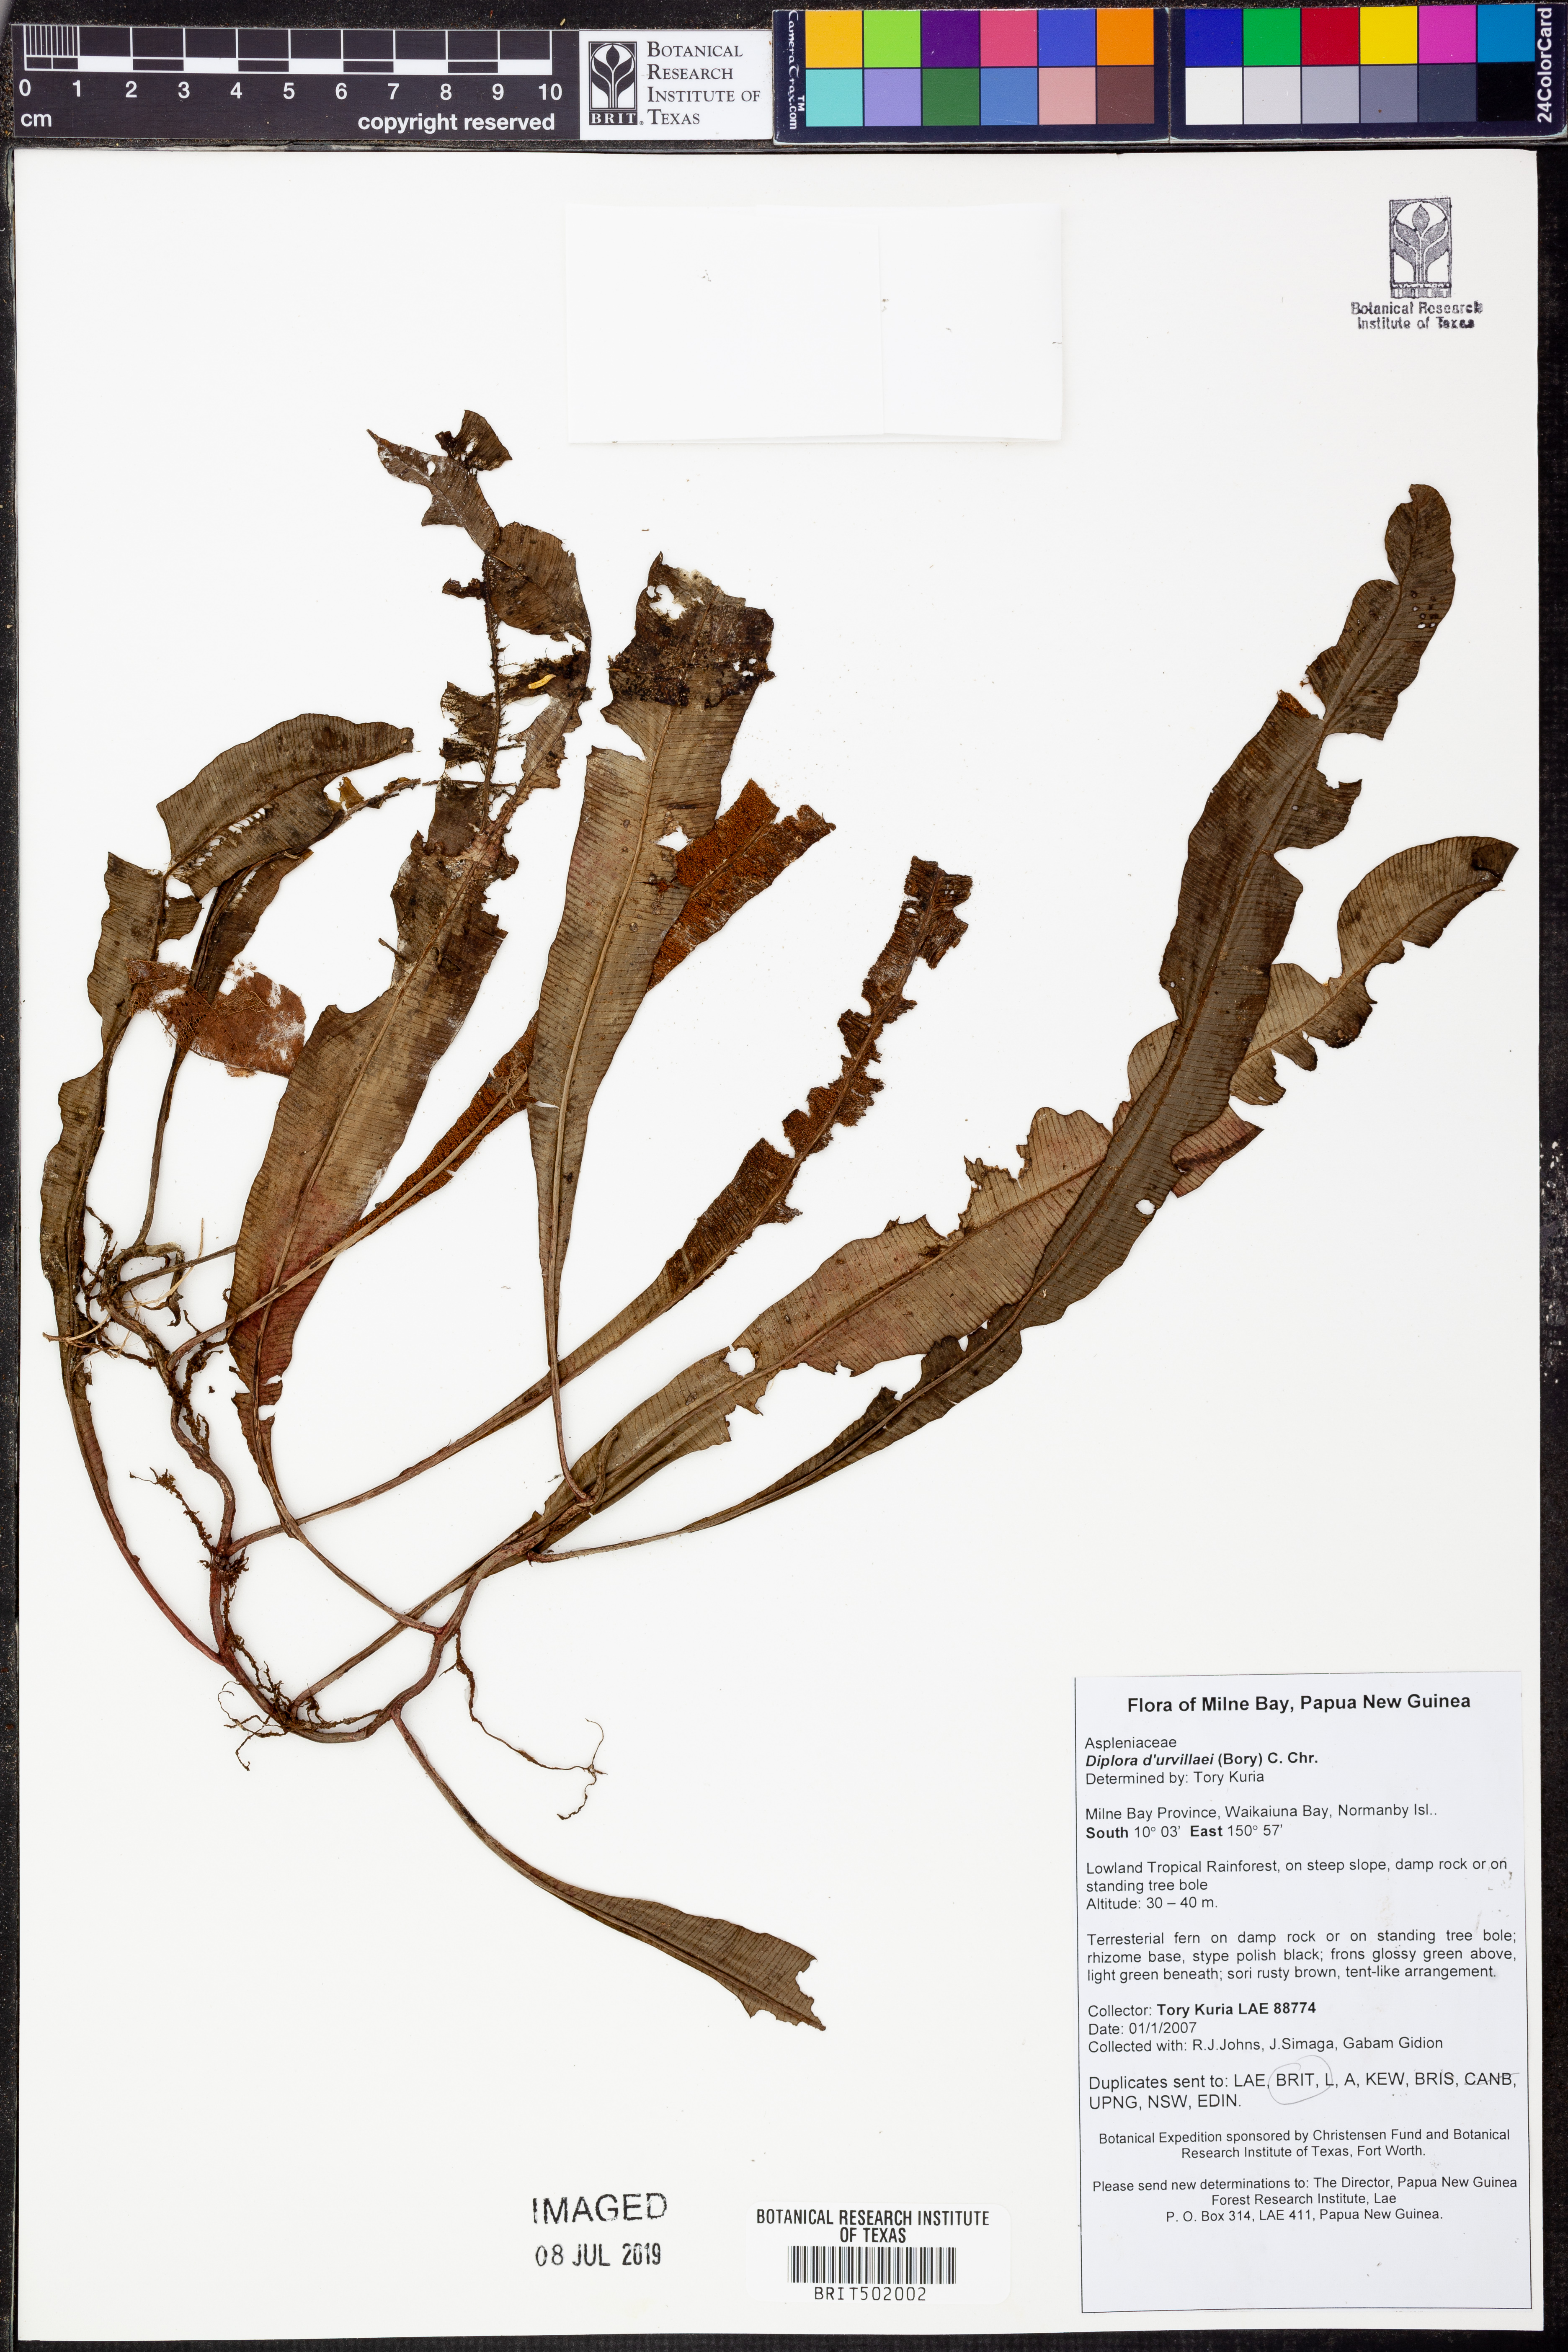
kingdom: Plantae
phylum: Tracheophyta
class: Polypodiopsida
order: Polypodiales
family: Aspleniaceae
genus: Asplenium
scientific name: Asplenium Diplora durvillaei
